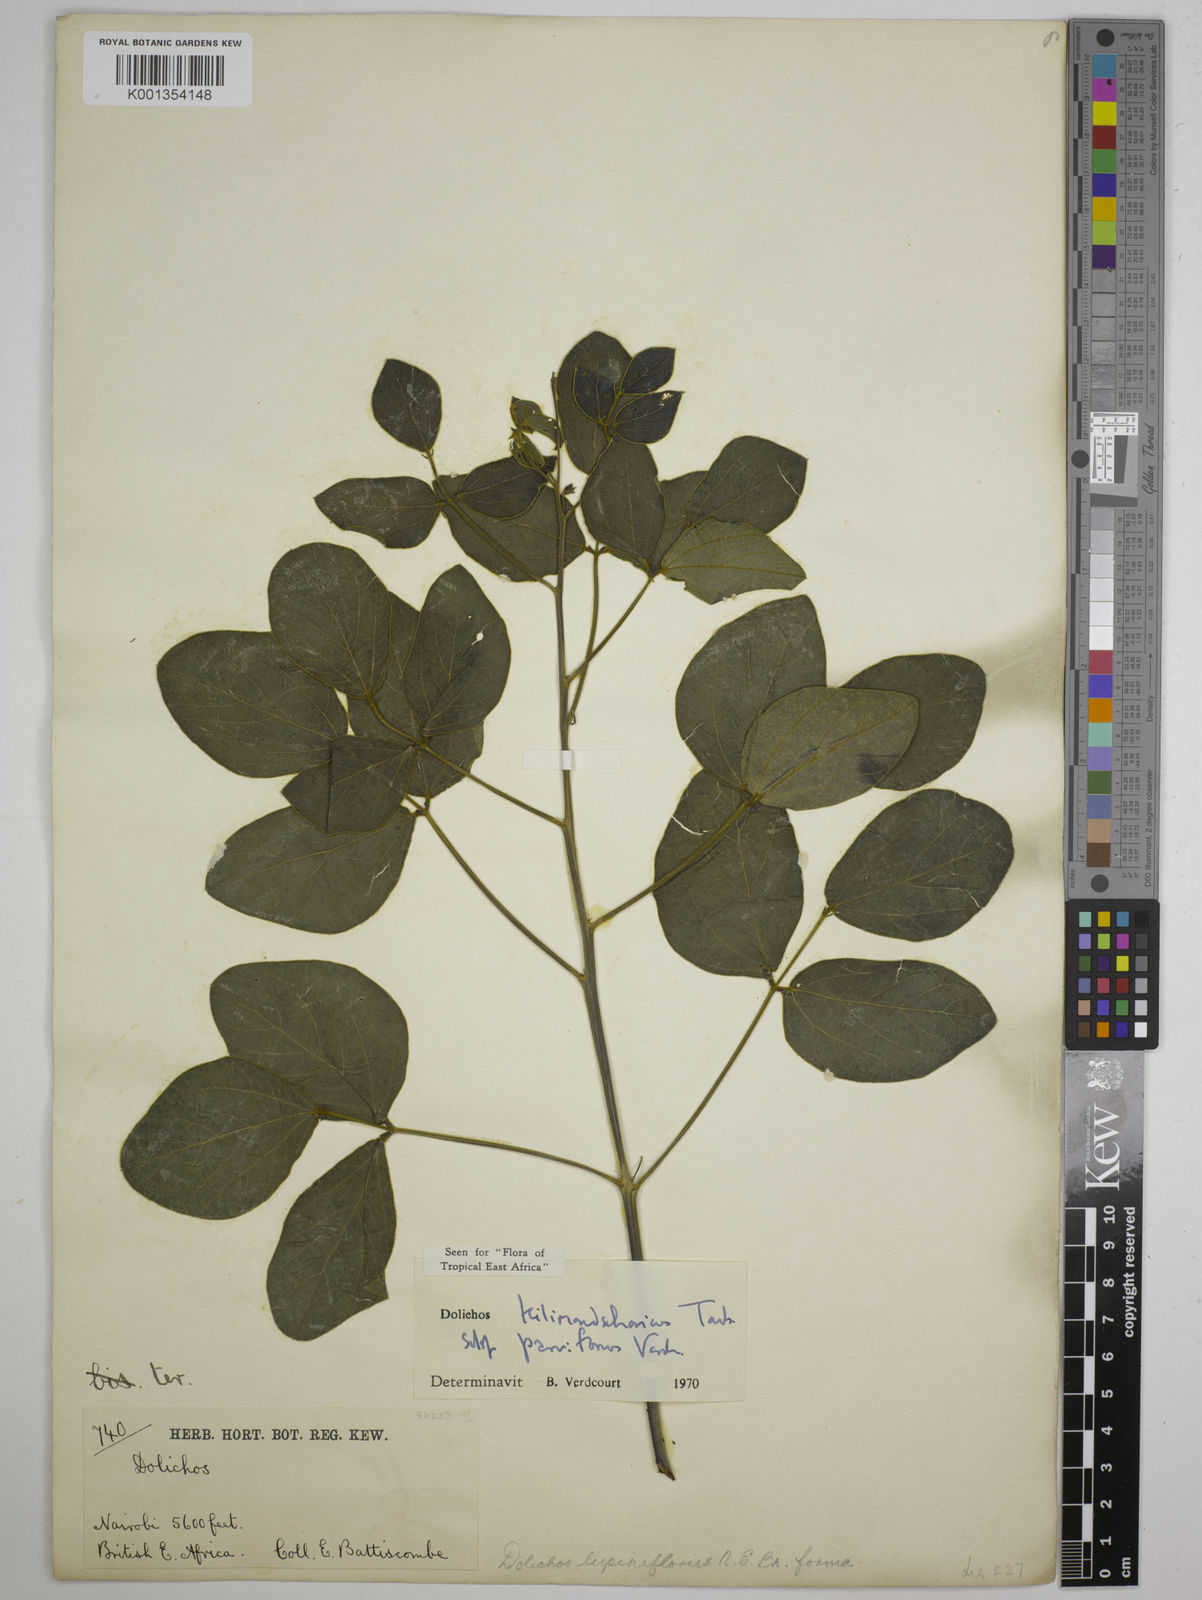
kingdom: Plantae
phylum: Tracheophyta
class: Magnoliopsida
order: Fabales
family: Fabaceae
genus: Dolichos
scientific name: Dolichos
